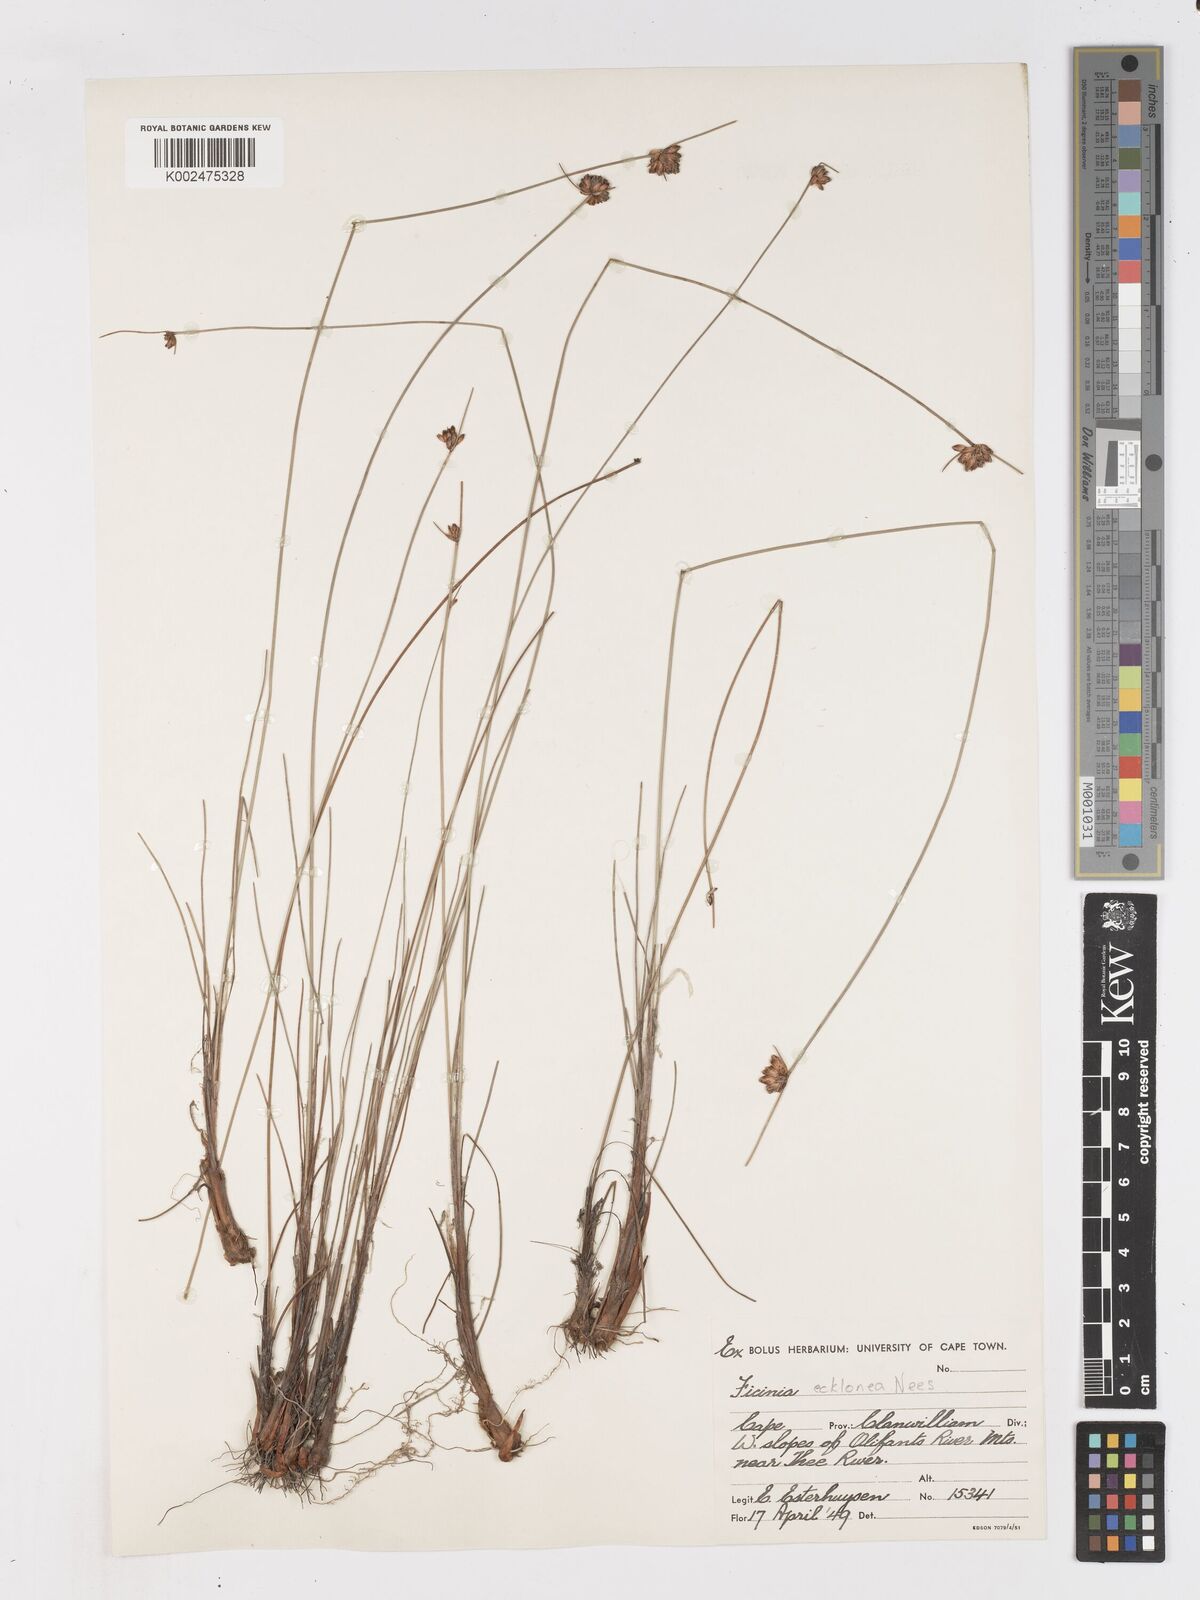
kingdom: Plantae
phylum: Tracheophyta
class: Liliopsida
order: Poales
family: Cyperaceae
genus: Ficinia
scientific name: Ficinia ecklonea
